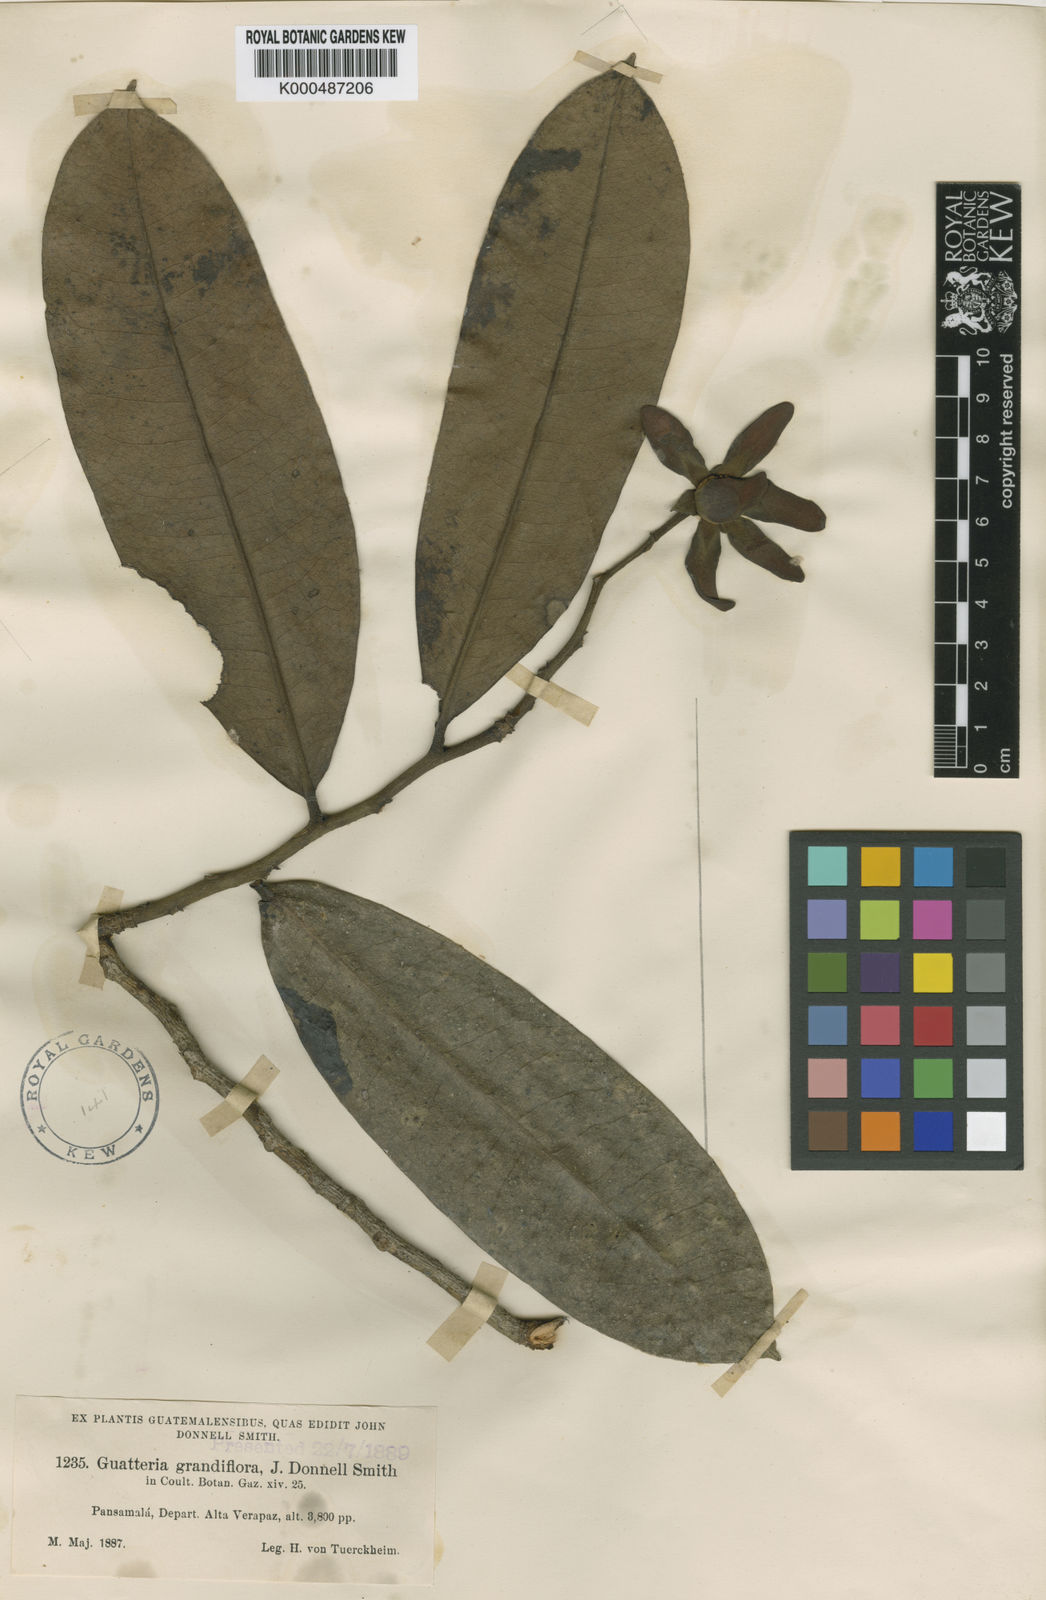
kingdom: Plantae
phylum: Tracheophyta
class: Magnoliopsida
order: Magnoliales
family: Annonaceae
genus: Guatteria
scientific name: Guatteria grandiflora
